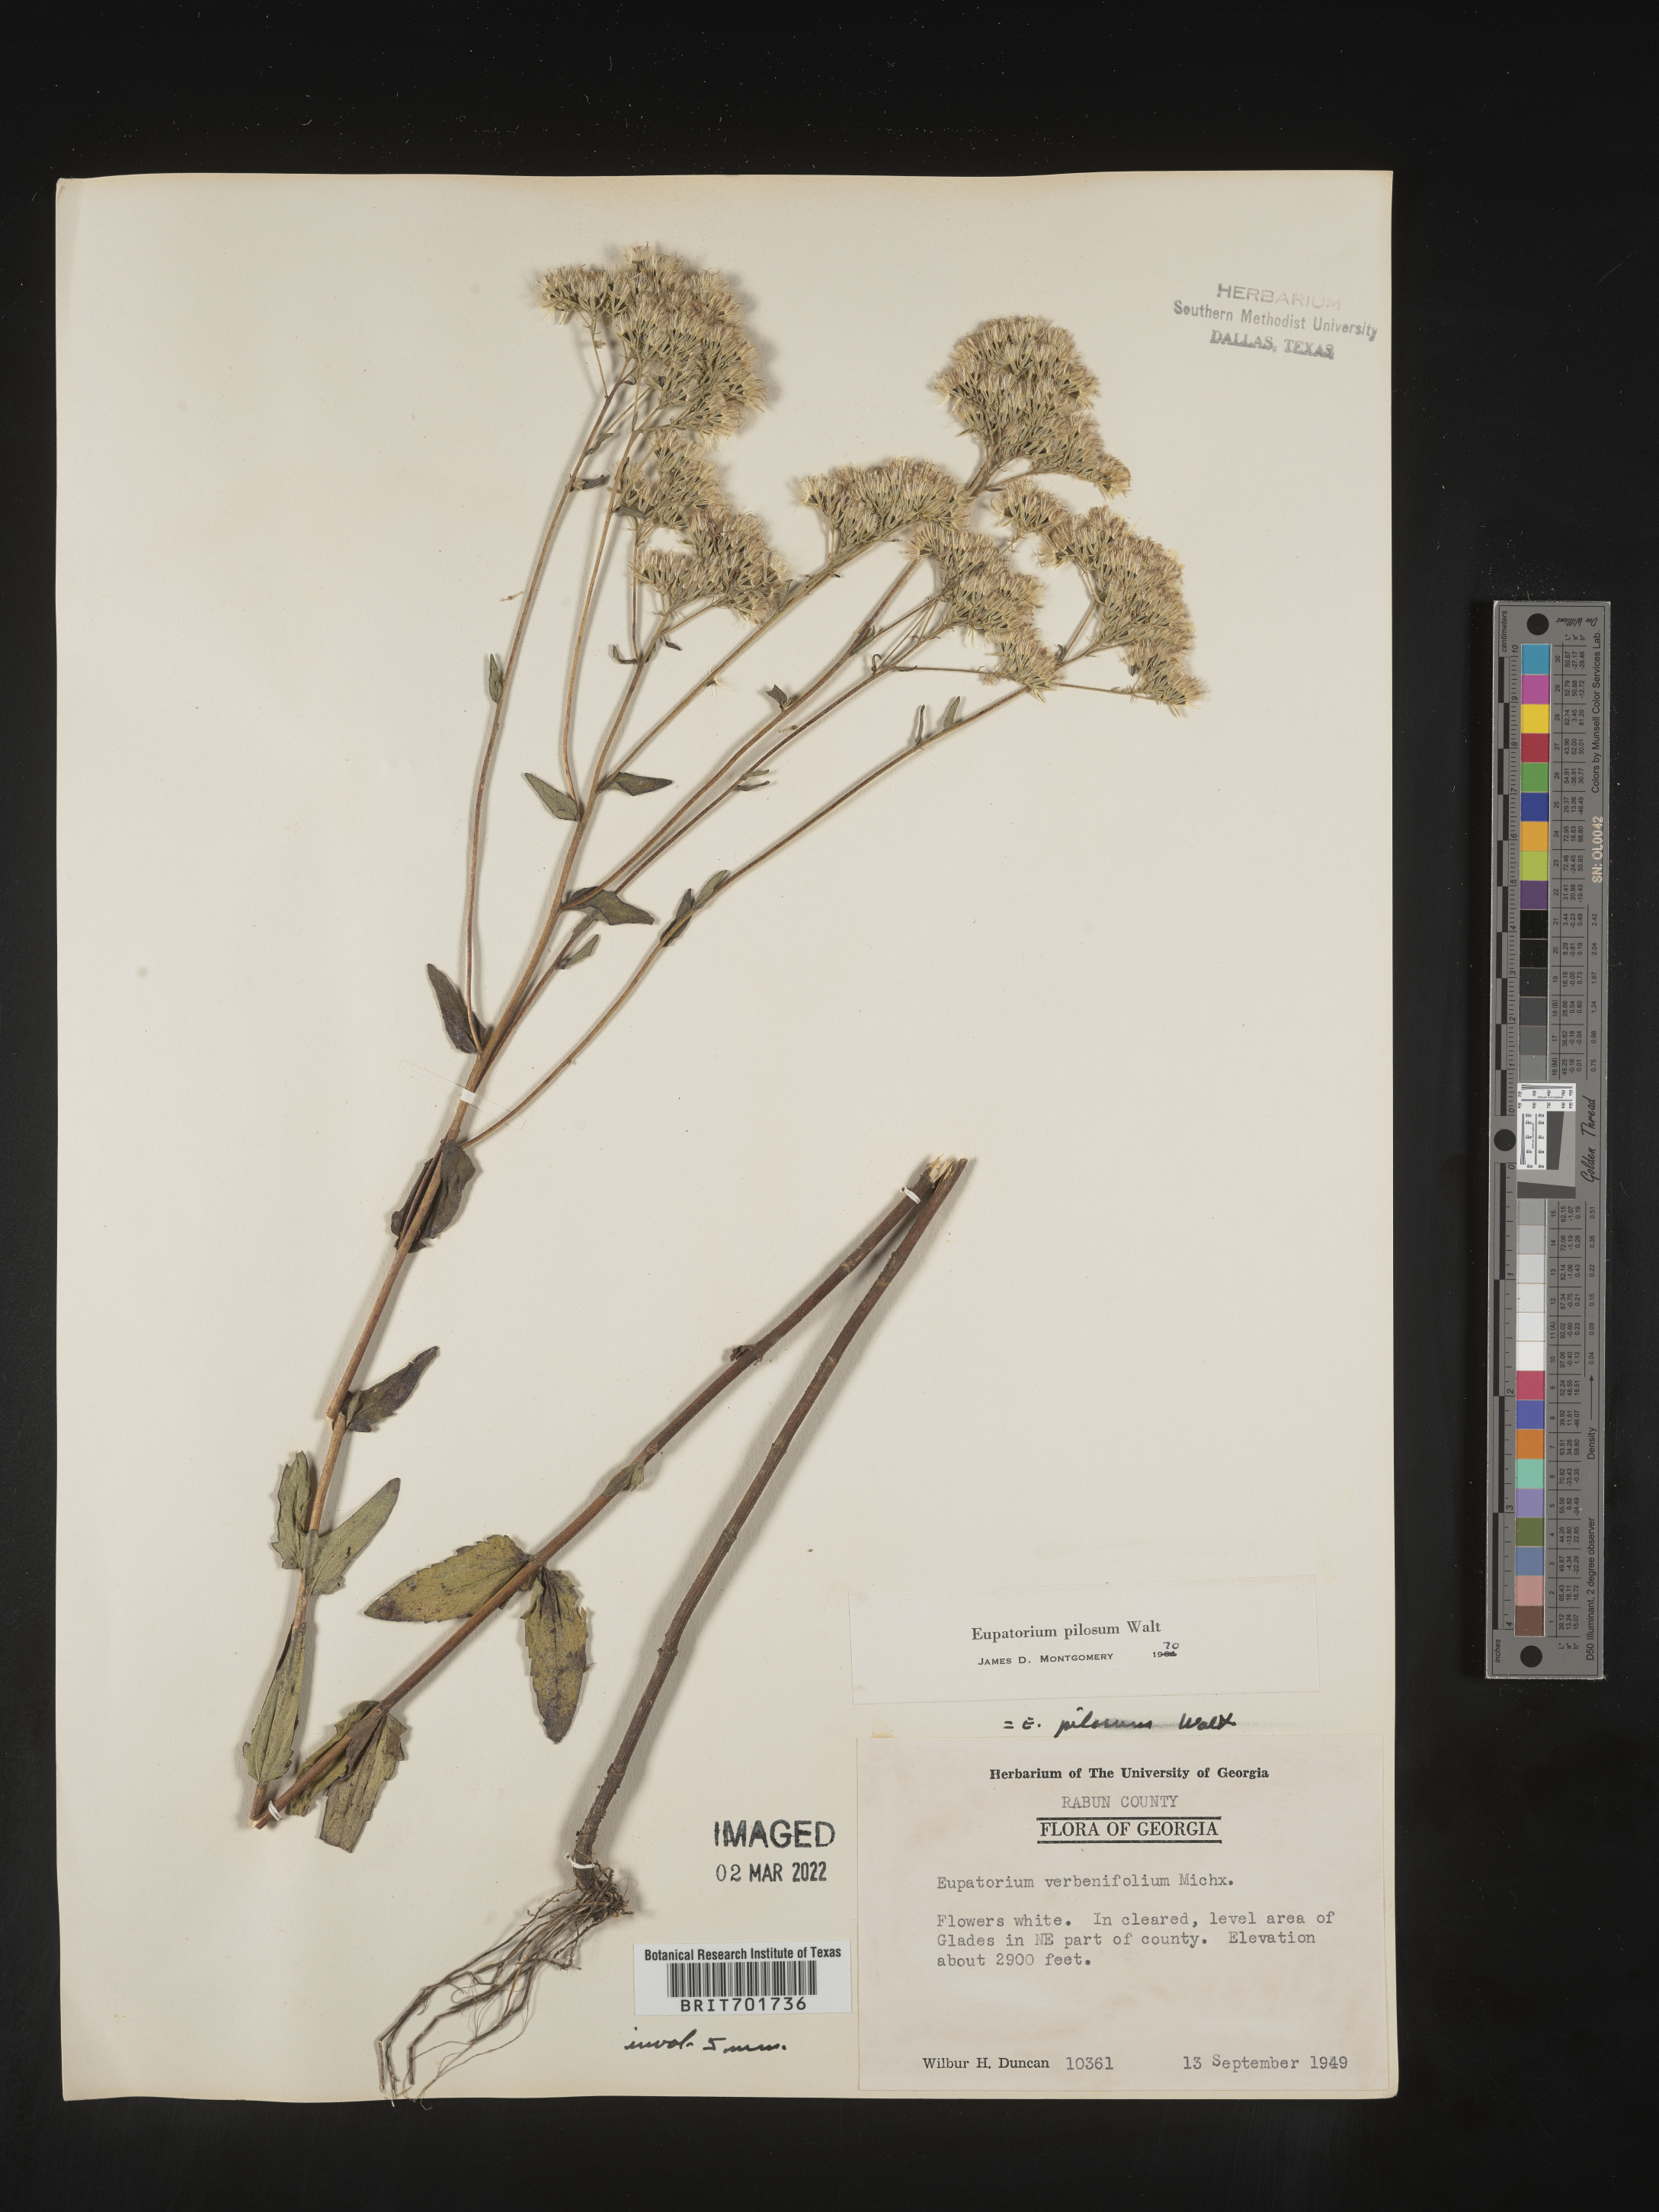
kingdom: Plantae
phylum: Tracheophyta
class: Magnoliopsida
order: Asterales
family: Asteraceae
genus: Eupatorium
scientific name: Eupatorium pilosum
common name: Rough boneset
